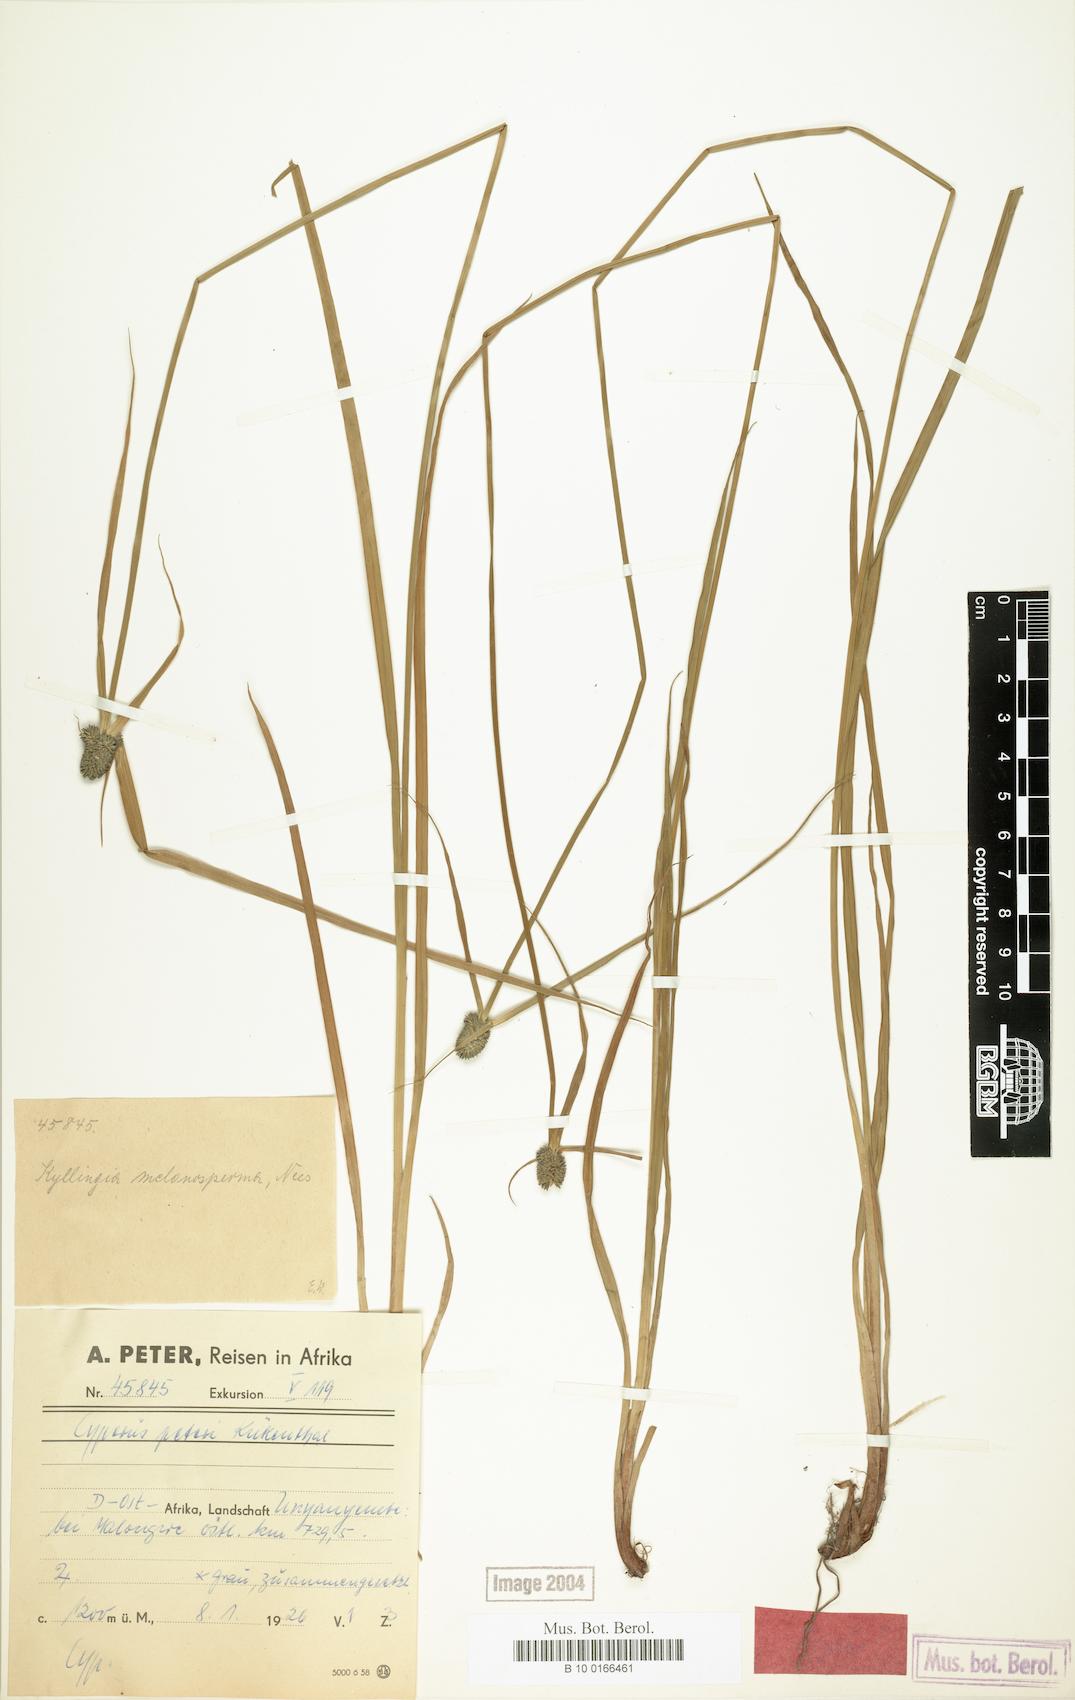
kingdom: Plantae
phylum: Tracheophyta
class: Liliopsida
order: Poales
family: Cyperaceae
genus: Cyperus
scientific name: Cyperus peteri
